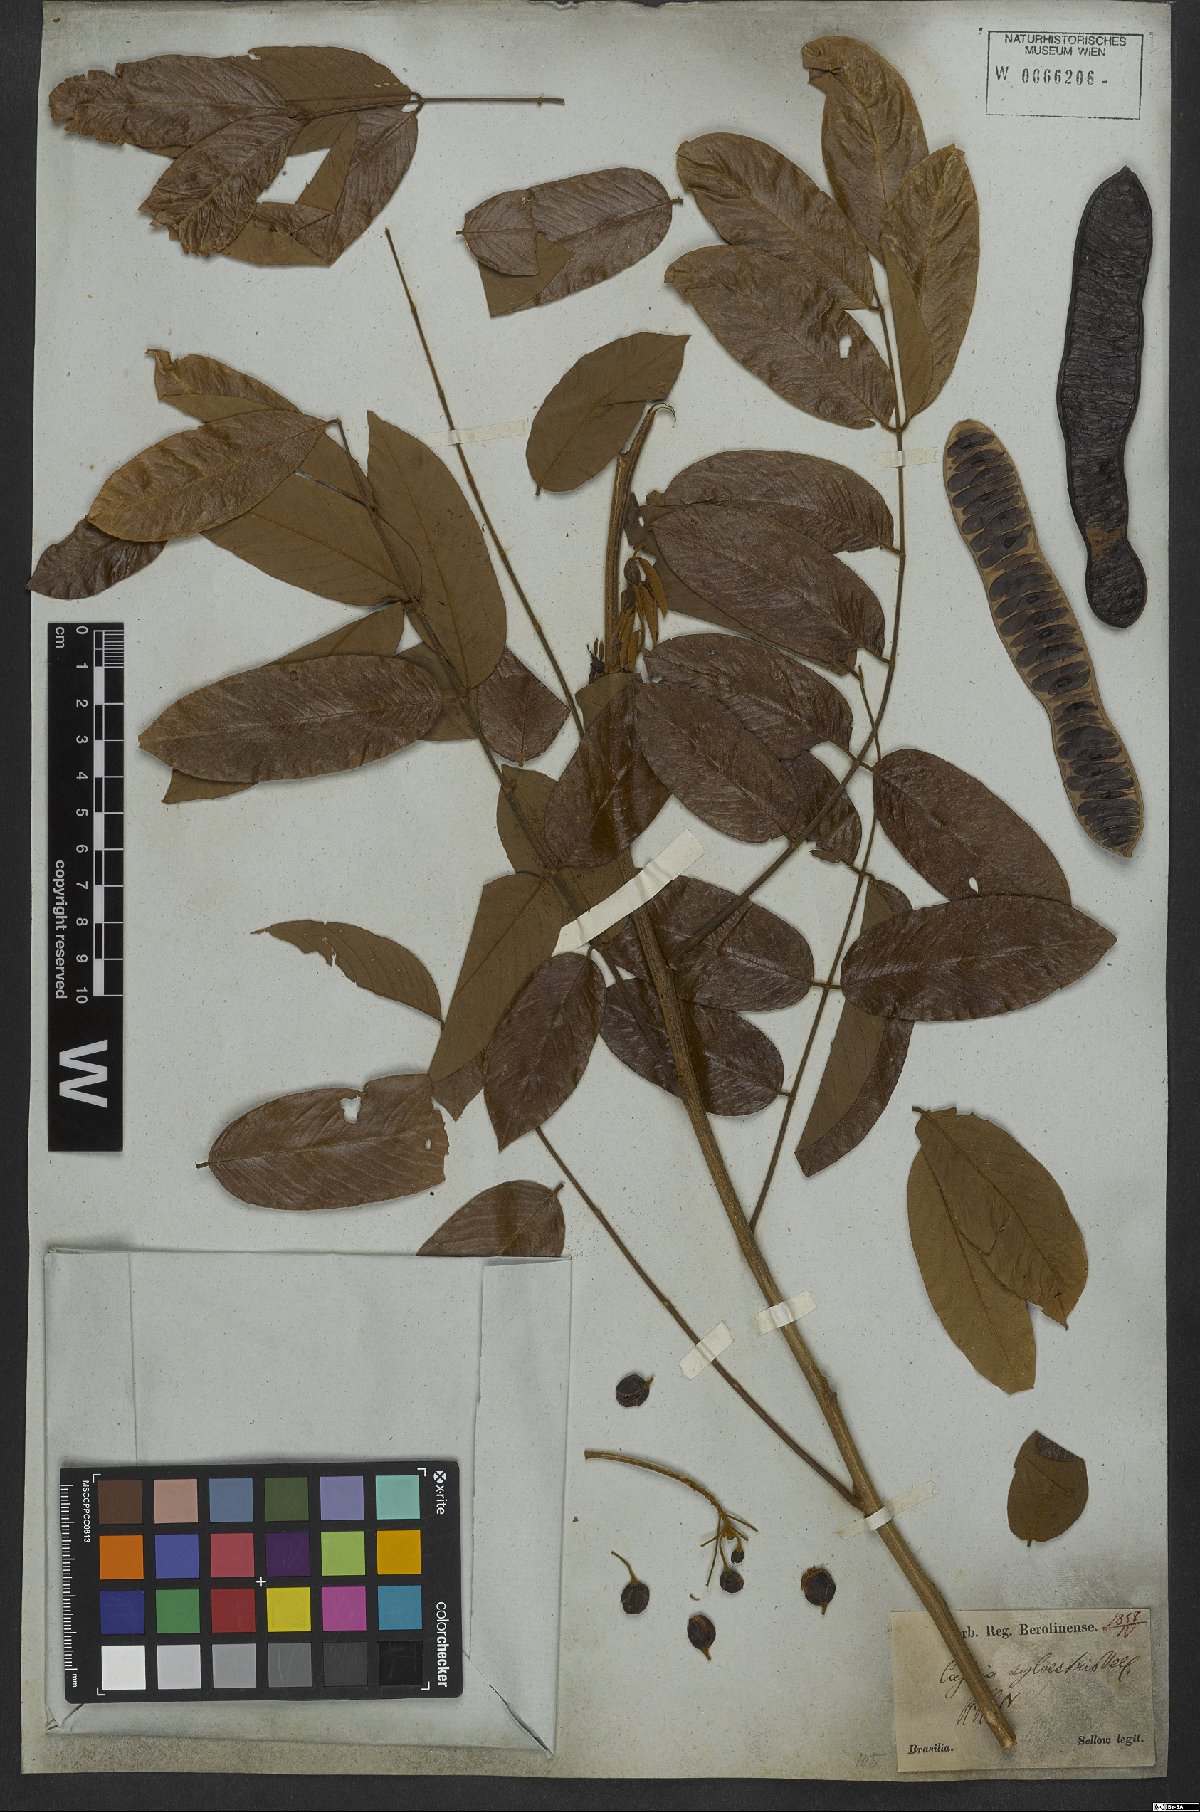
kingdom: Plantae
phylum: Tracheophyta
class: Magnoliopsida
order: Fabales
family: Fabaceae
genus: Senna
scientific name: Senna silvestris
